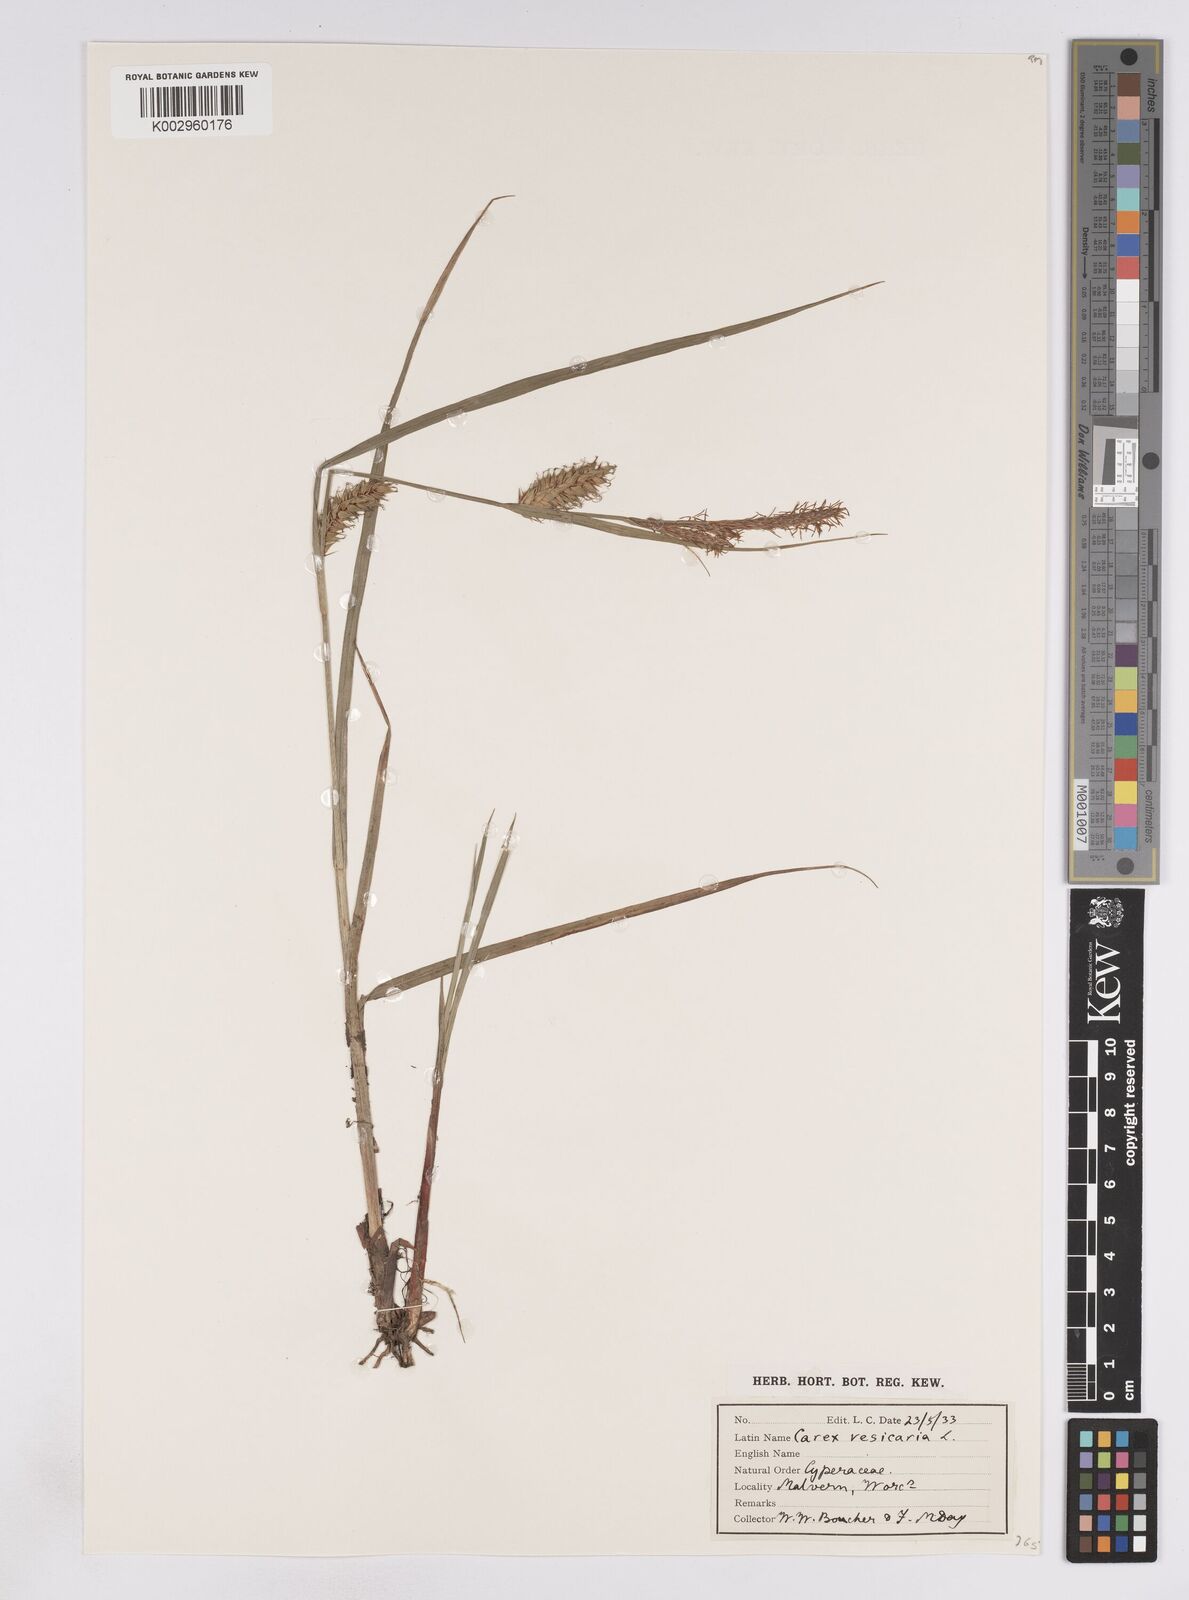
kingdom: Plantae
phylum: Tracheophyta
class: Liliopsida
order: Poales
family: Cyperaceae
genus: Carex
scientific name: Carex vesicaria
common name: Bladder-sedge
